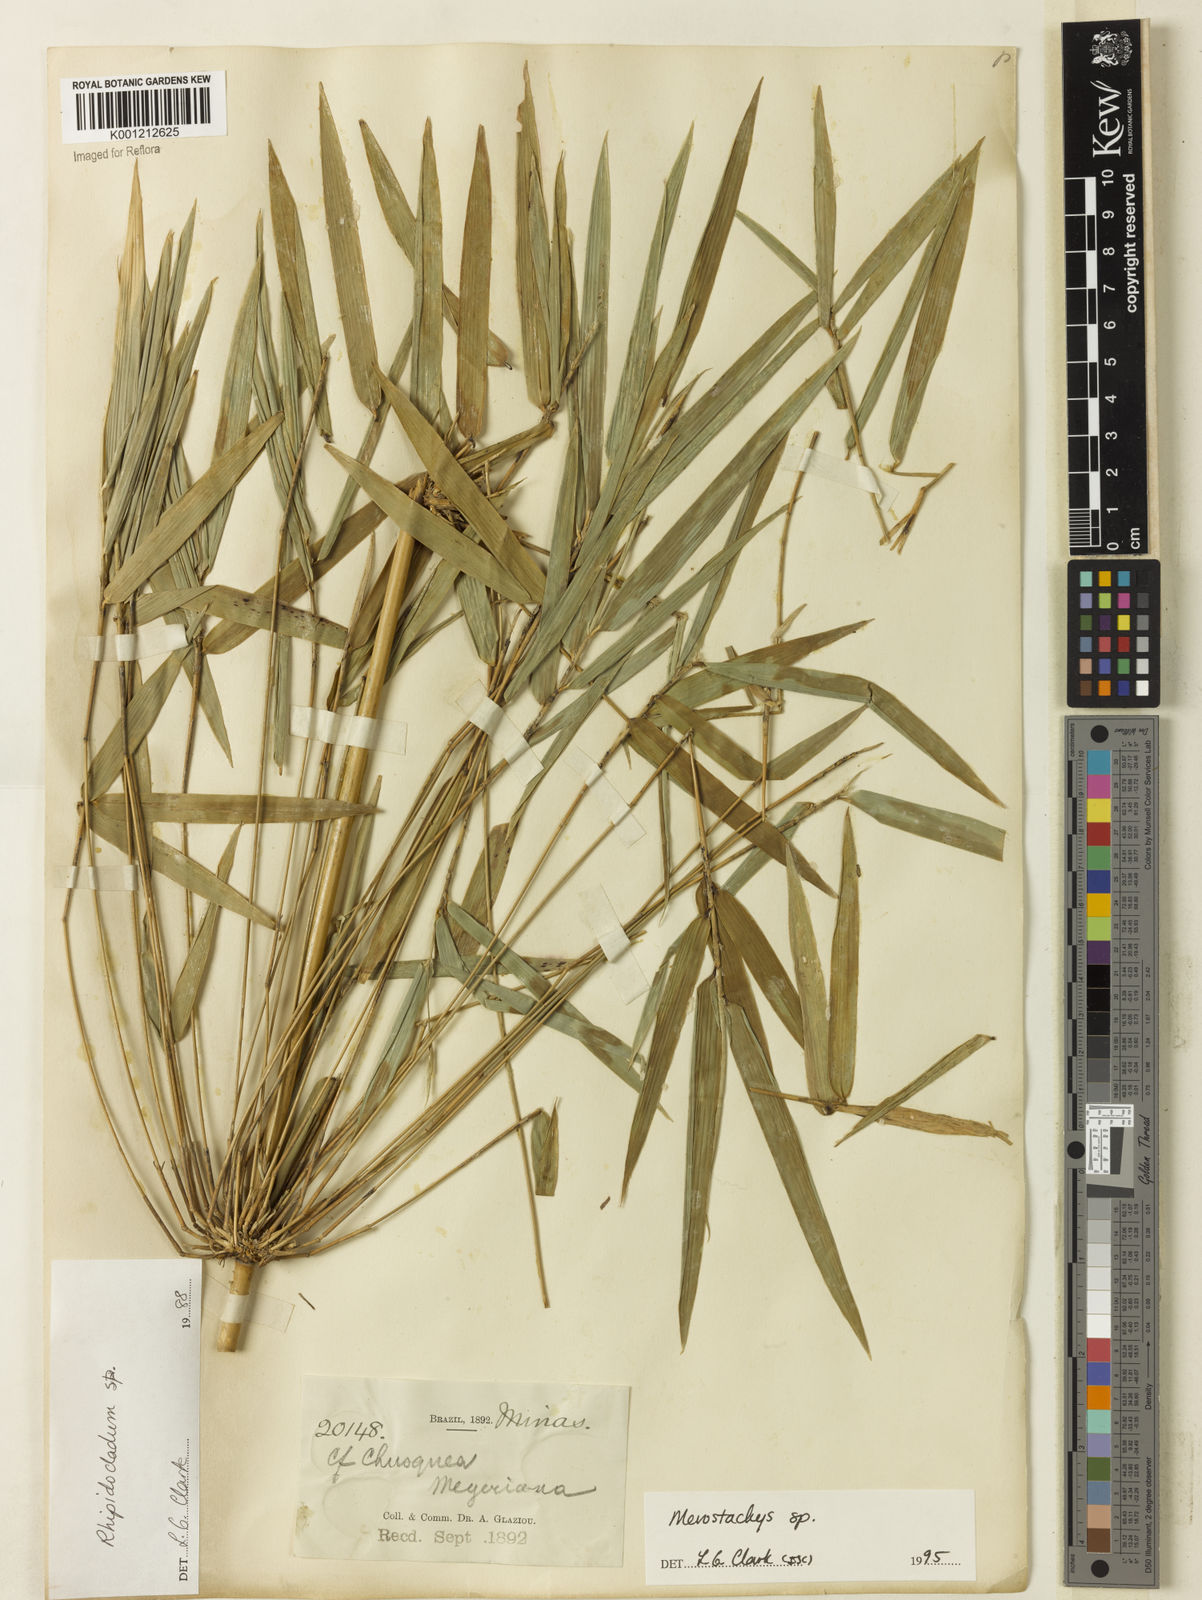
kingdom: Plantae
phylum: Tracheophyta
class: Liliopsida
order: Poales
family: Poaceae
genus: Merostachys
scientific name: Merostachys
